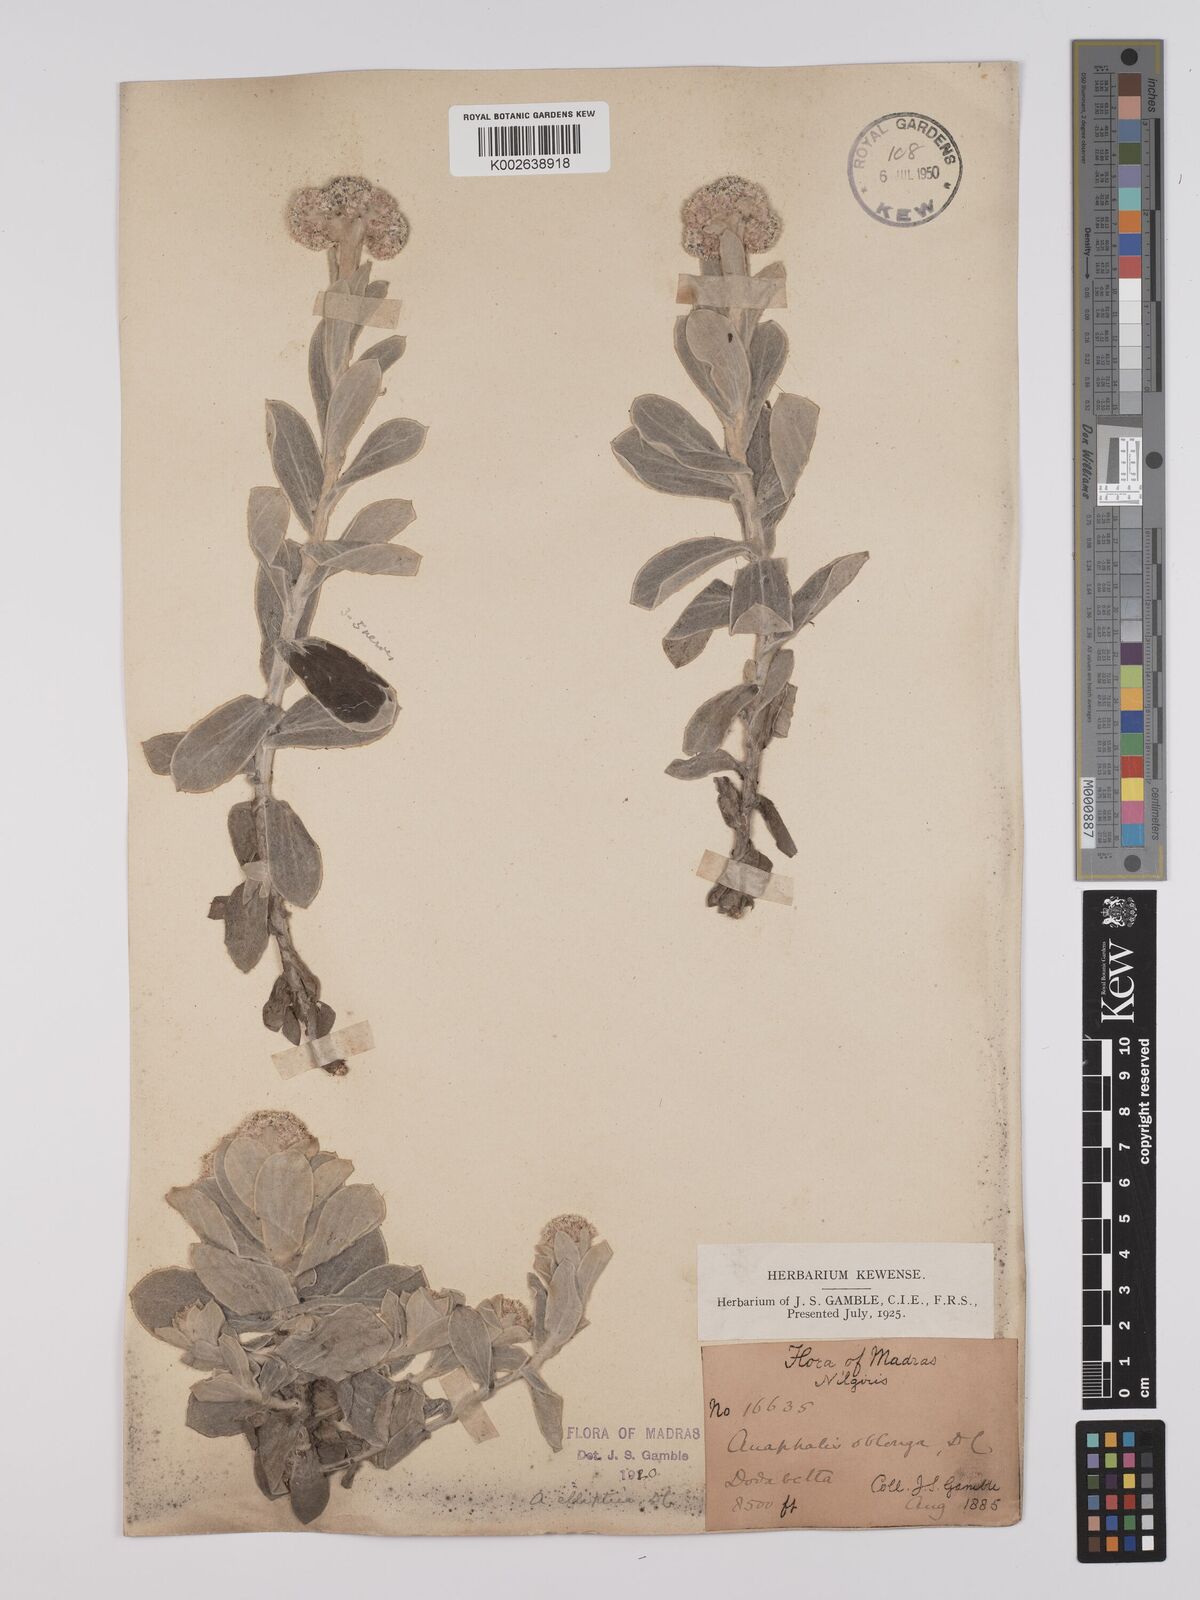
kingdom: Plantae
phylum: Tracheophyta
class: Magnoliopsida
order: Asterales
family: Asteraceae
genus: Anaphalis
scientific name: Anaphalis elliptica
